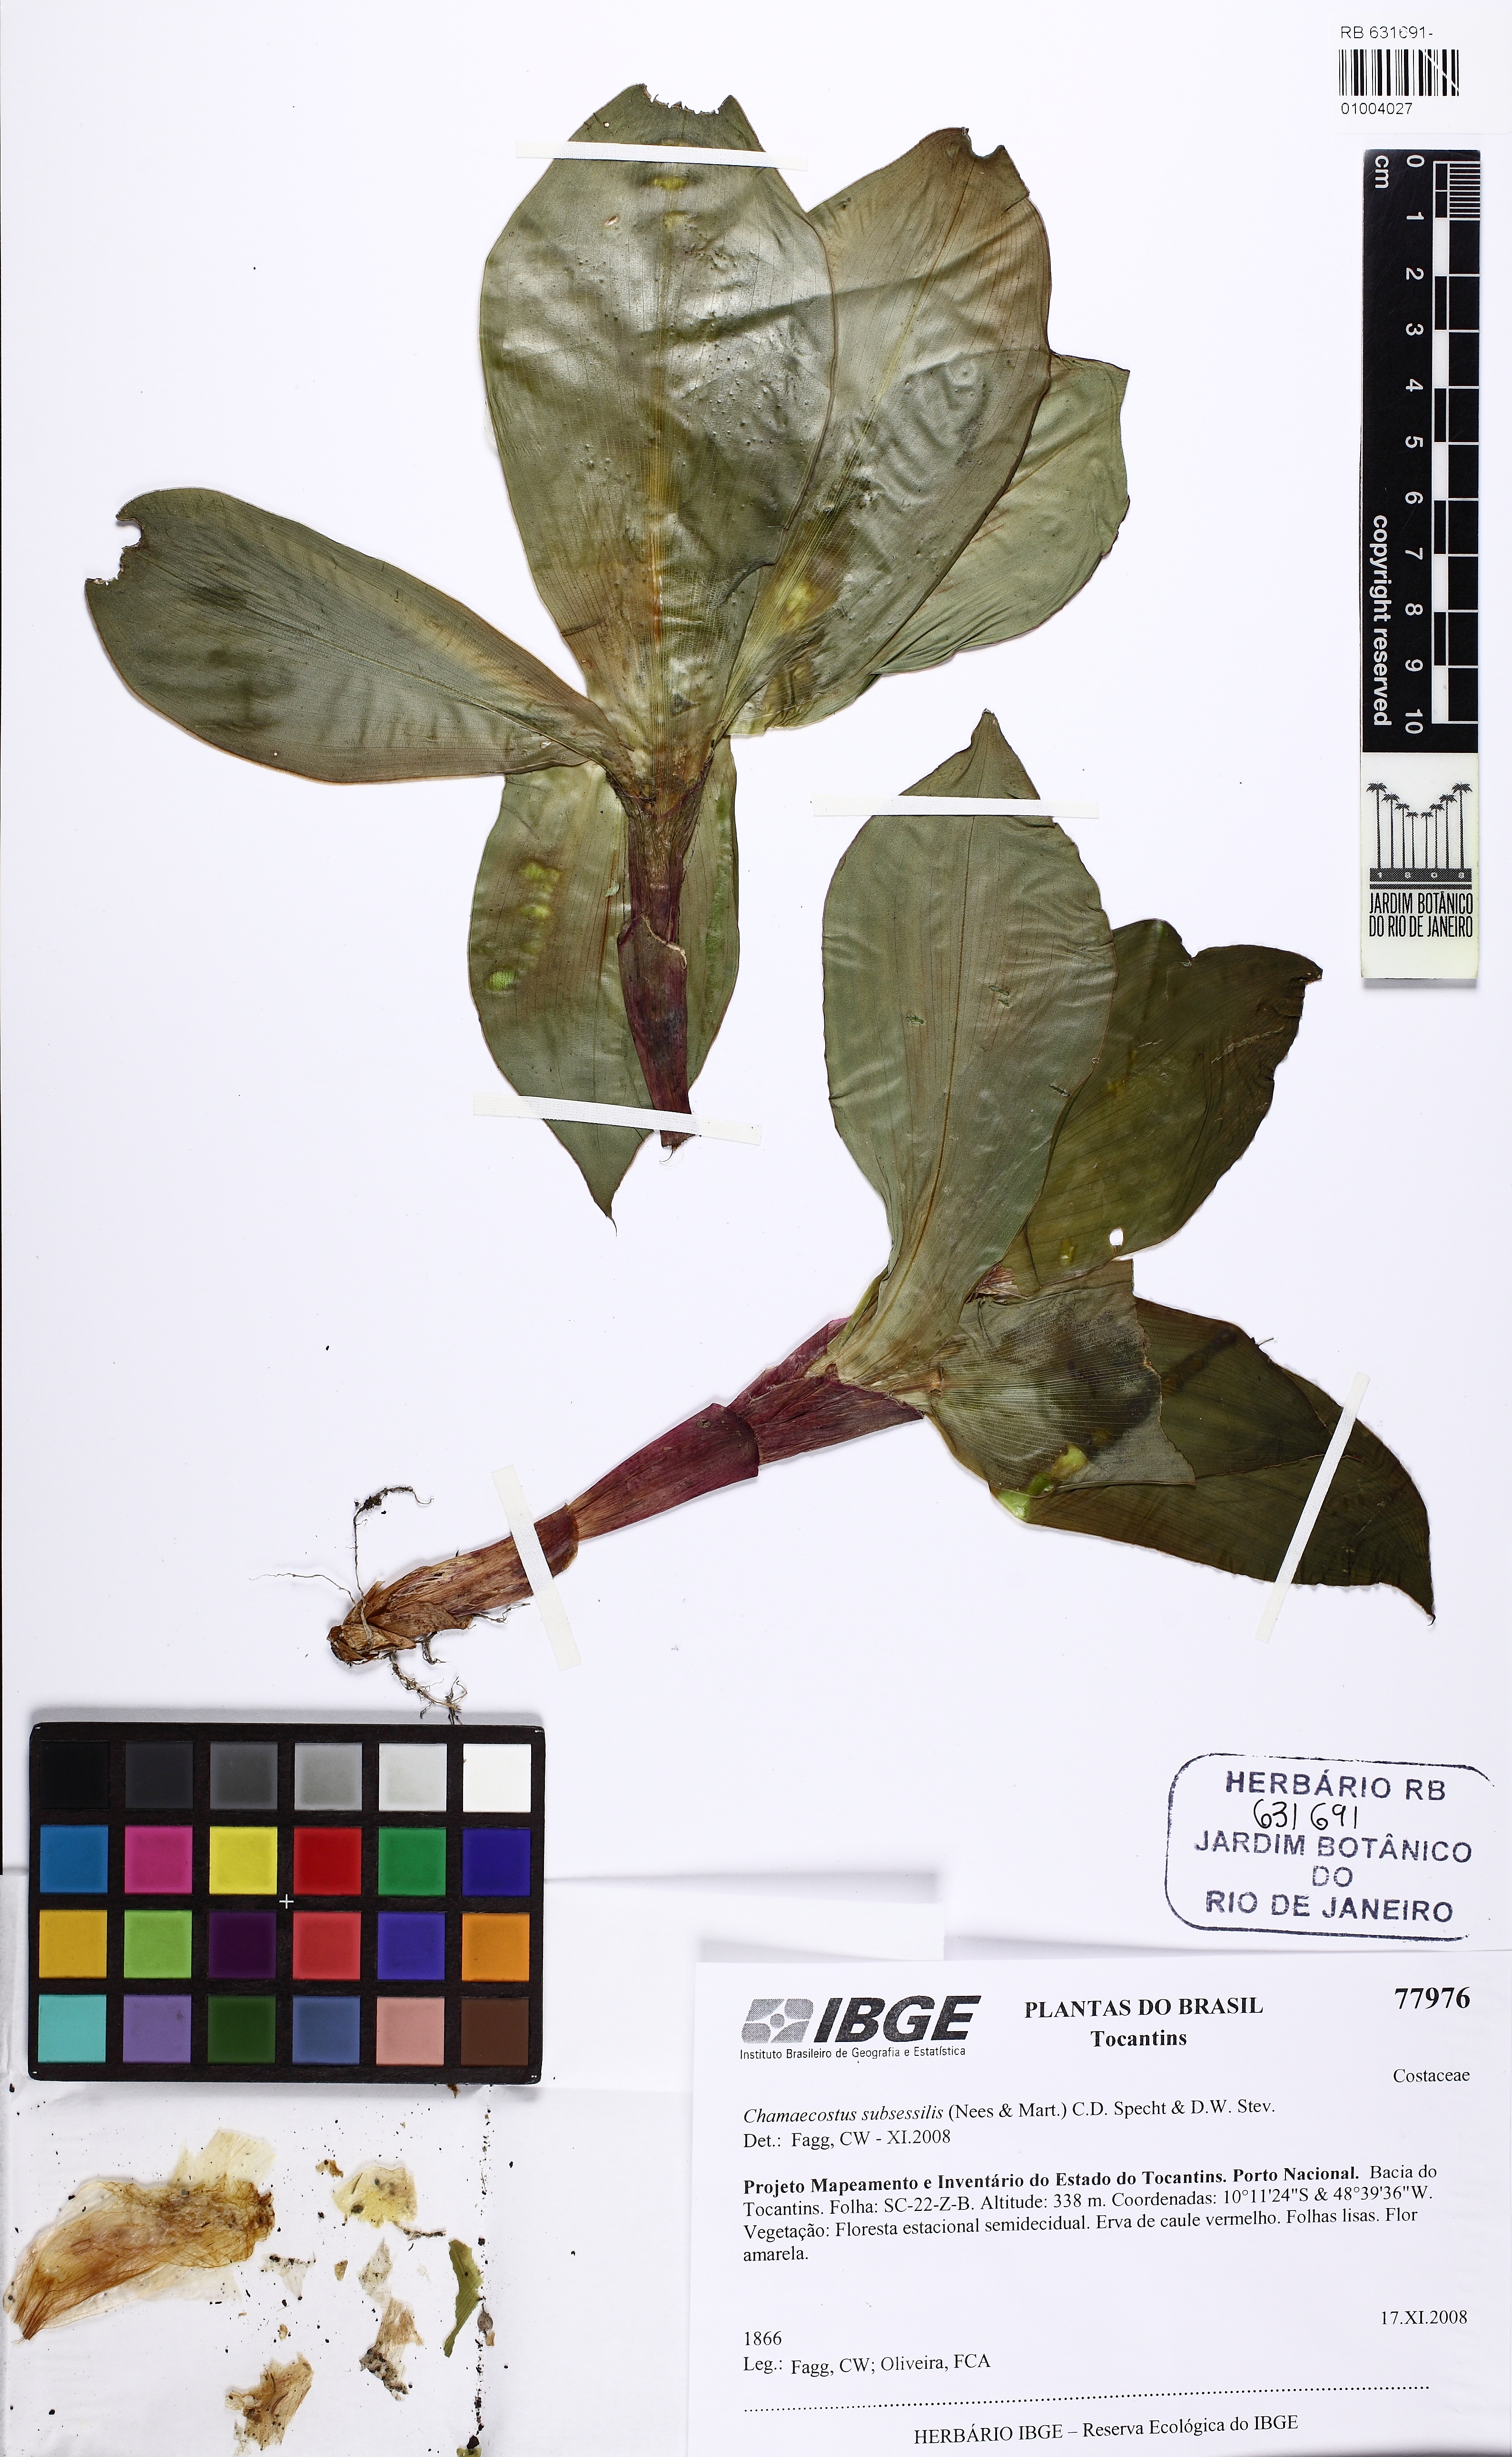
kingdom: Plantae
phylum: Tracheophyta
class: Liliopsida
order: Zingiberales
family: Costaceae
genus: Chamaecostus
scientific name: Chamaecostus subsessilis
